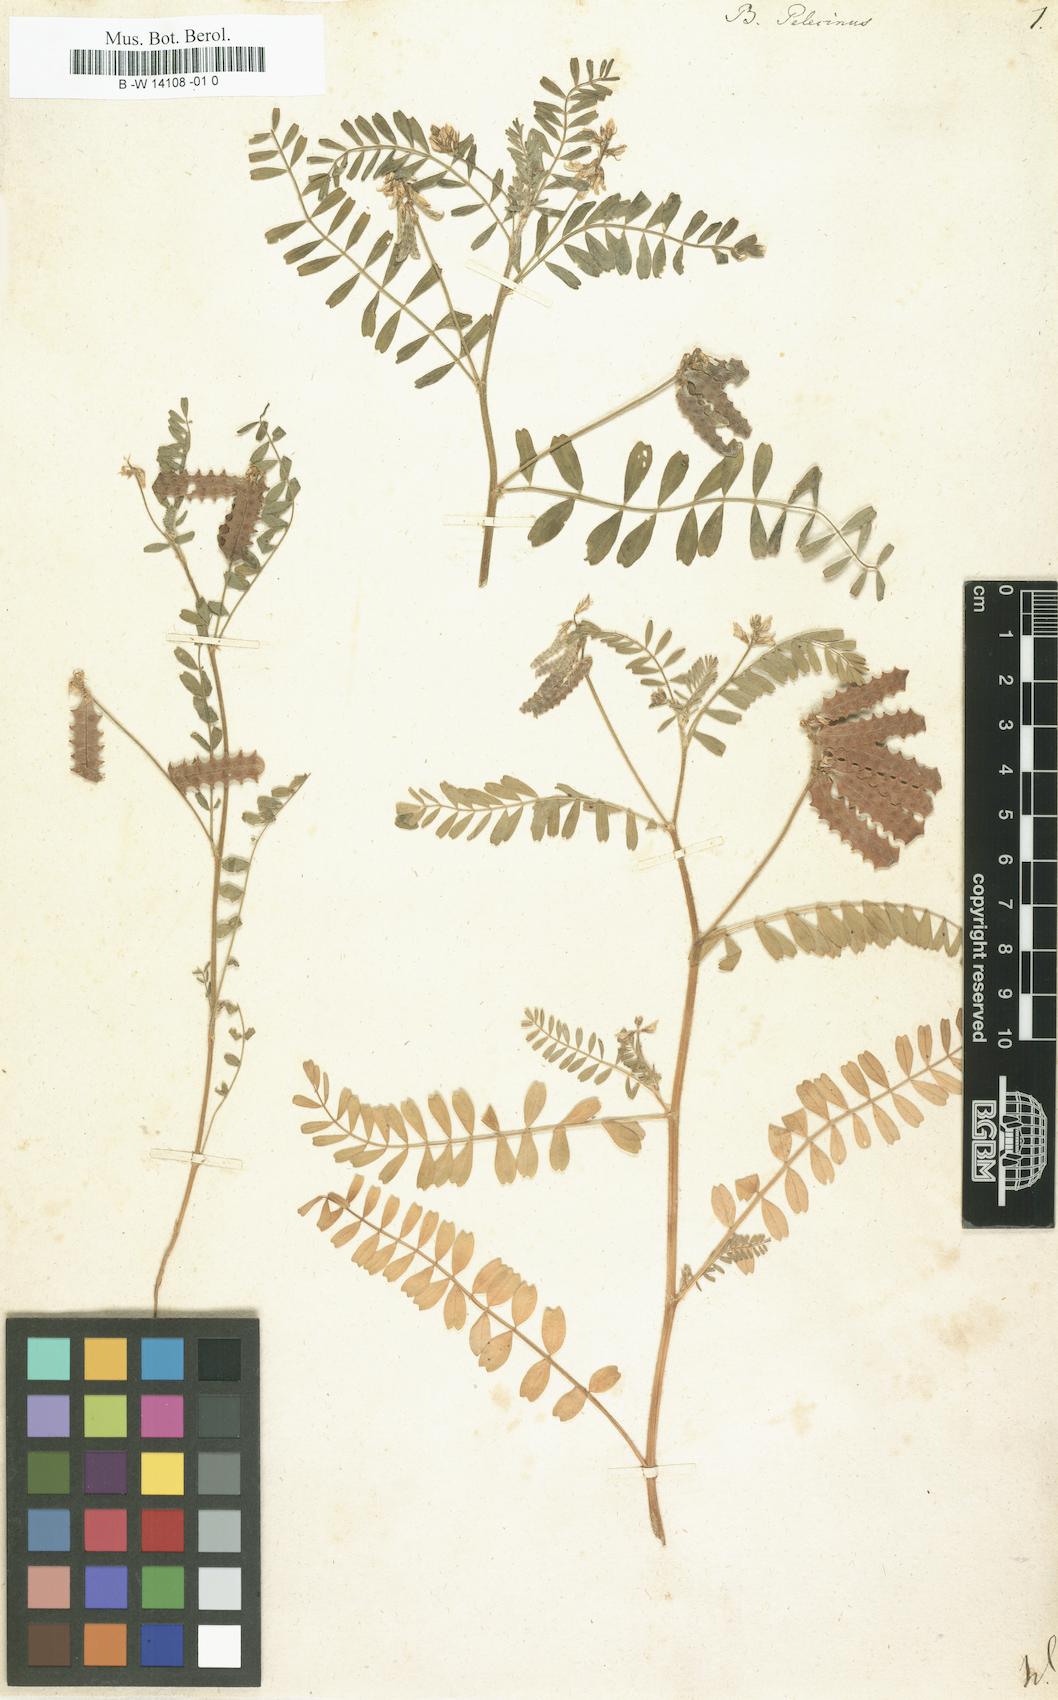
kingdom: Plantae
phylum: Tracheophyta
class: Magnoliopsida
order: Fabales
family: Fabaceae
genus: Biserrula
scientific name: Biserrula pelecinus
